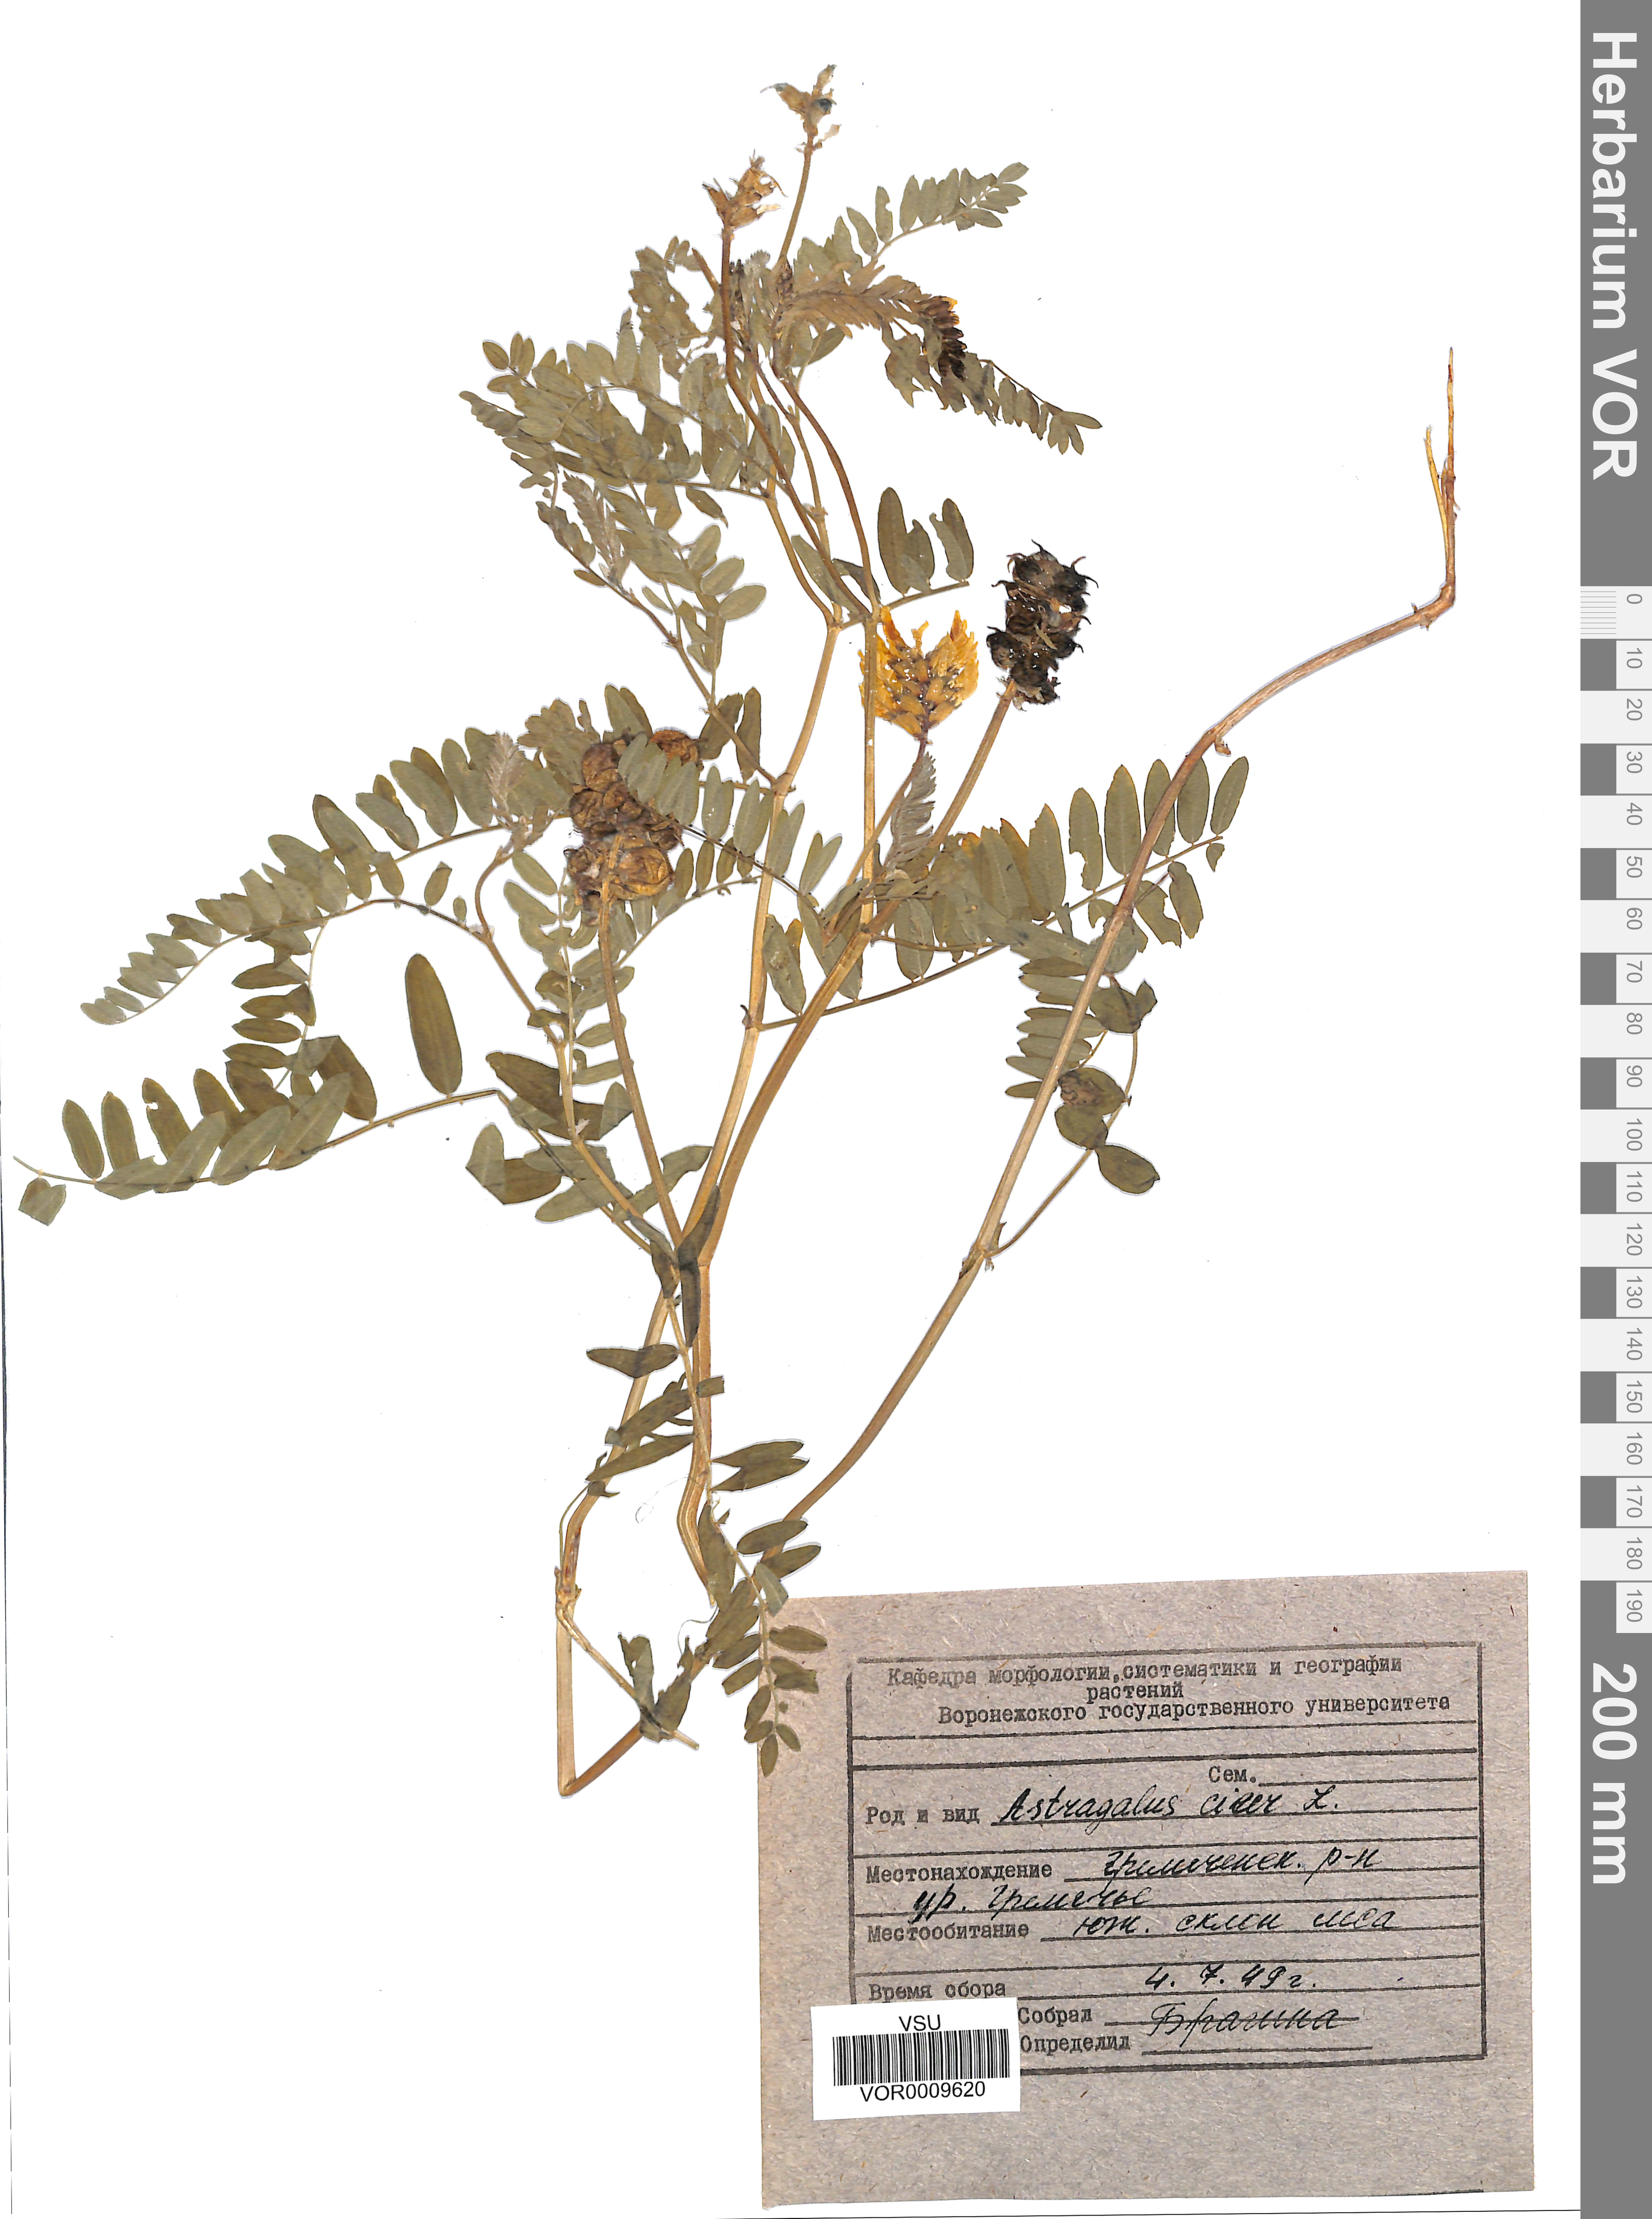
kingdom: Plantae
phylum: Tracheophyta
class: Magnoliopsida
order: Fabales
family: Fabaceae
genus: Astragalus
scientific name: Astragalus cicer
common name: Chick-pea milk-vetch
